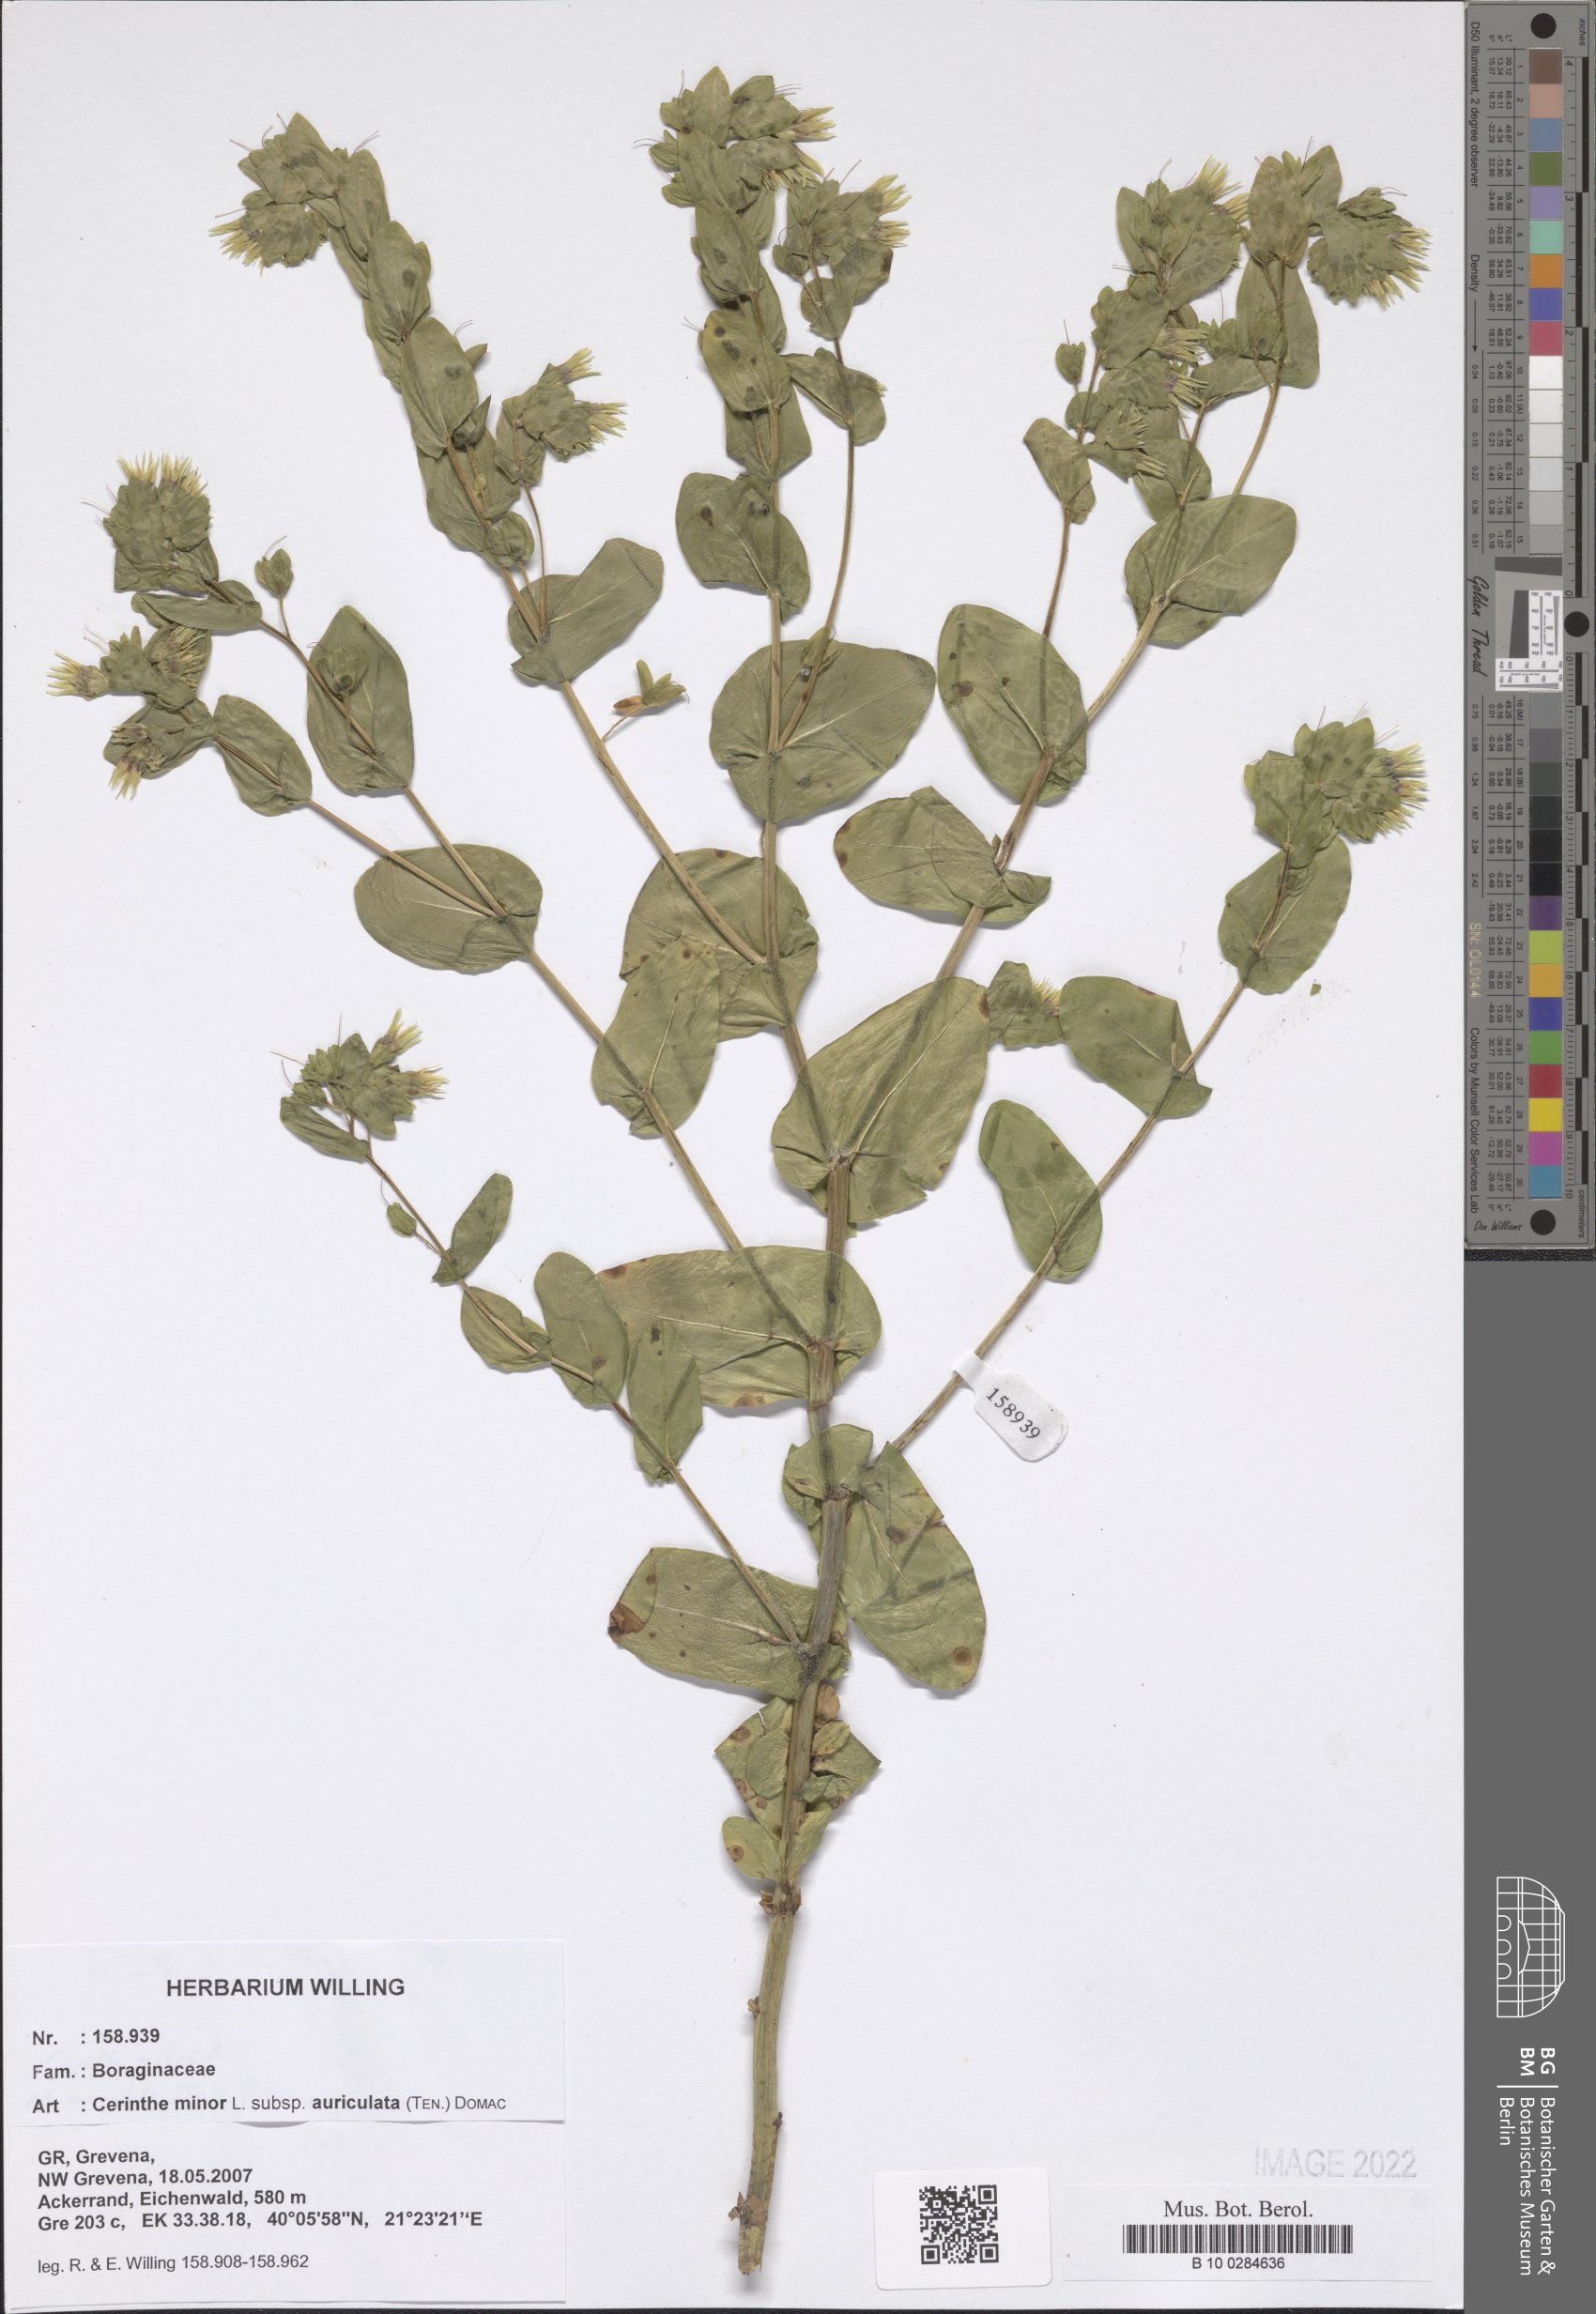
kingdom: Plantae
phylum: Tracheophyta
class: Magnoliopsida
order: Boraginales
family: Boraginaceae
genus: Cerinthe
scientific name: Cerinthe minor
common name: Lesser honeywort
